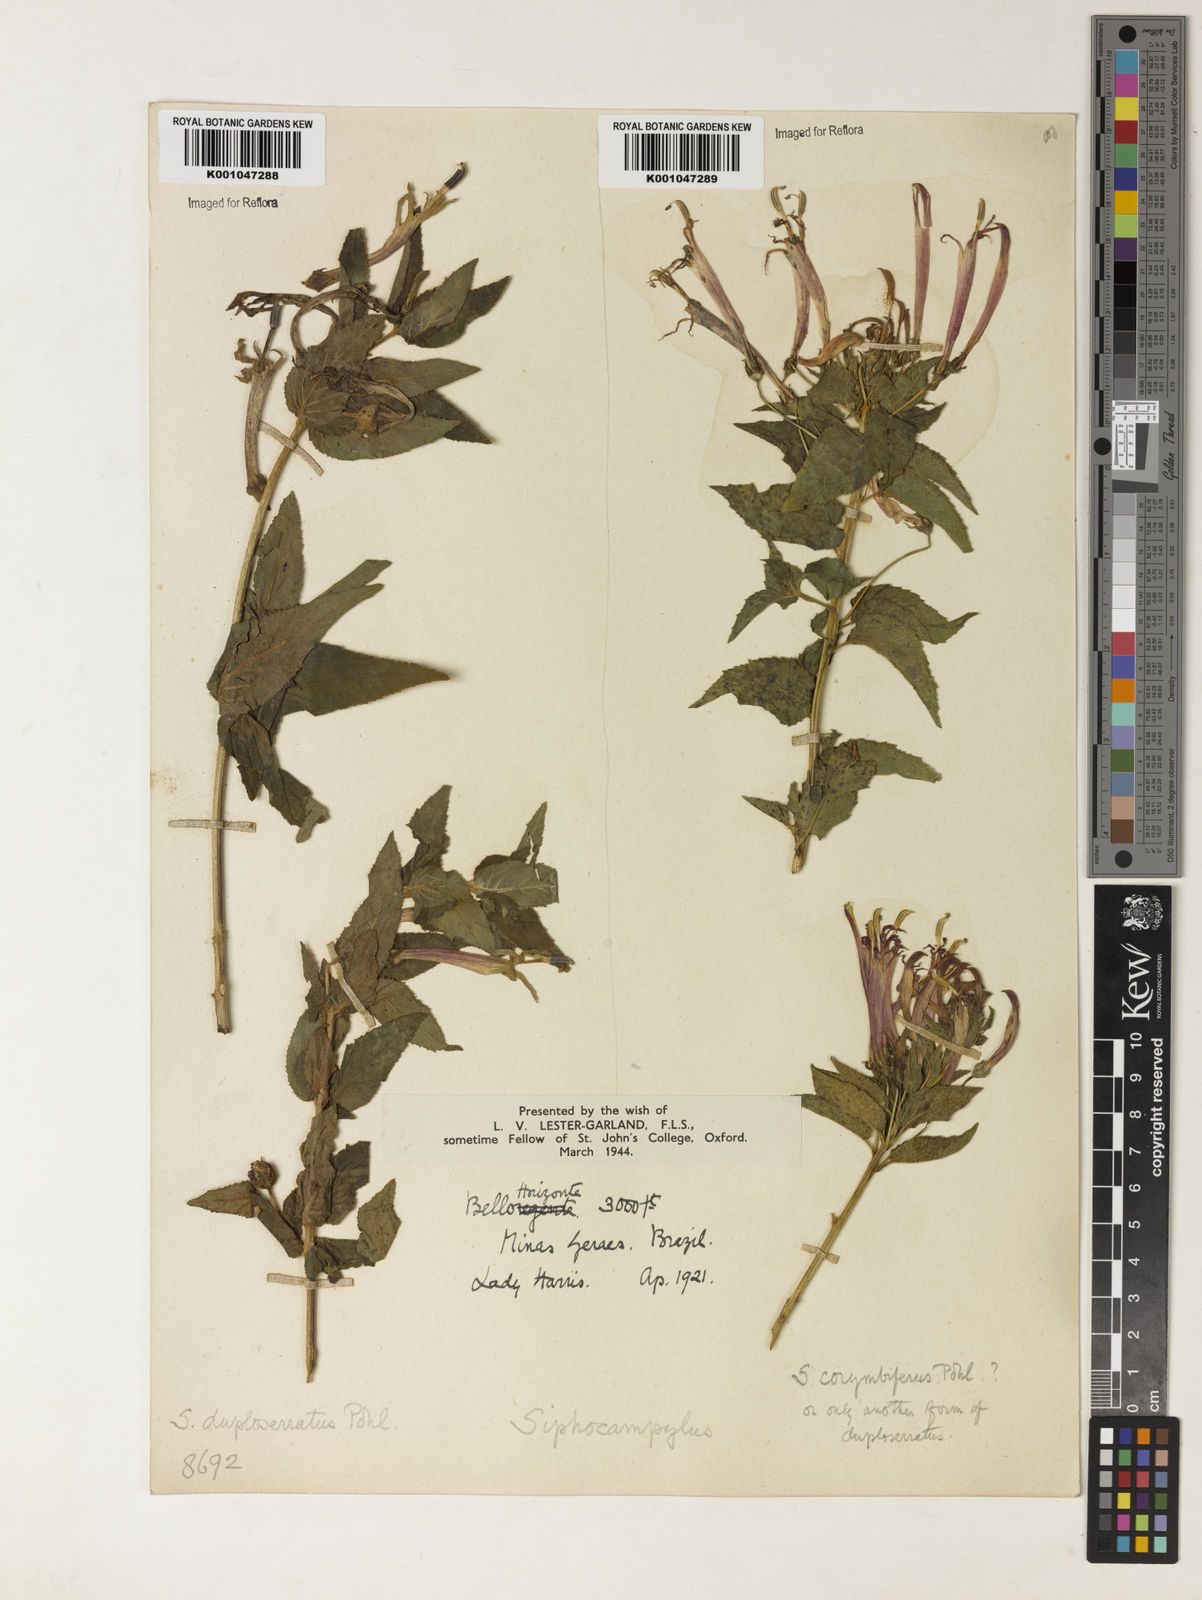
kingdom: Plantae
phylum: Tracheophyta
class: Magnoliopsida
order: Asterales
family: Campanulaceae
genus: Siphocampylus
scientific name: Siphocampylus duploserratus
